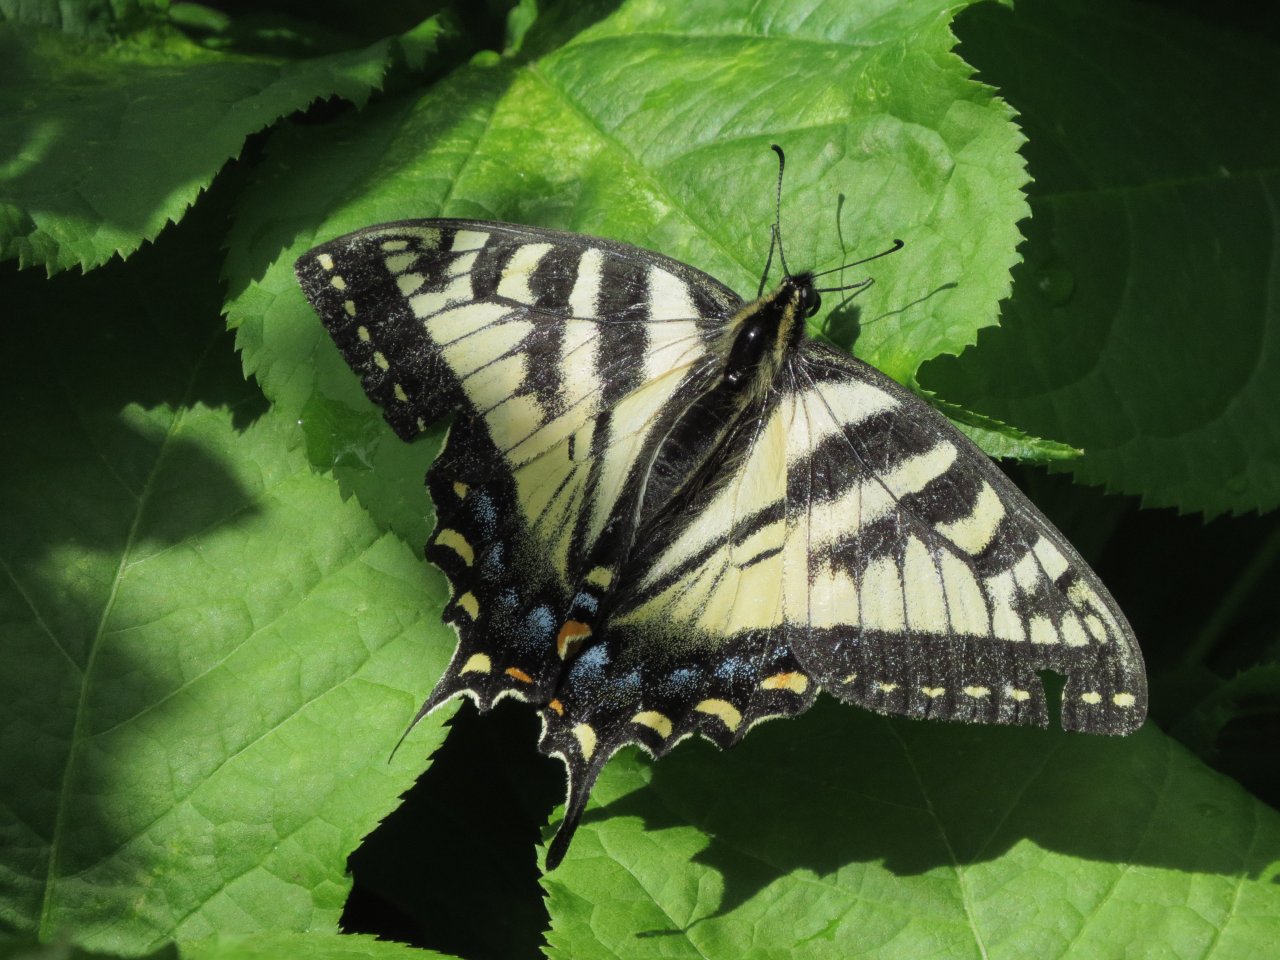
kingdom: Animalia
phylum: Arthropoda
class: Insecta
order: Lepidoptera
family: Papilionidae
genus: Pterourus
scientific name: Pterourus canadensis
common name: Canadian Tiger Swallowtail
